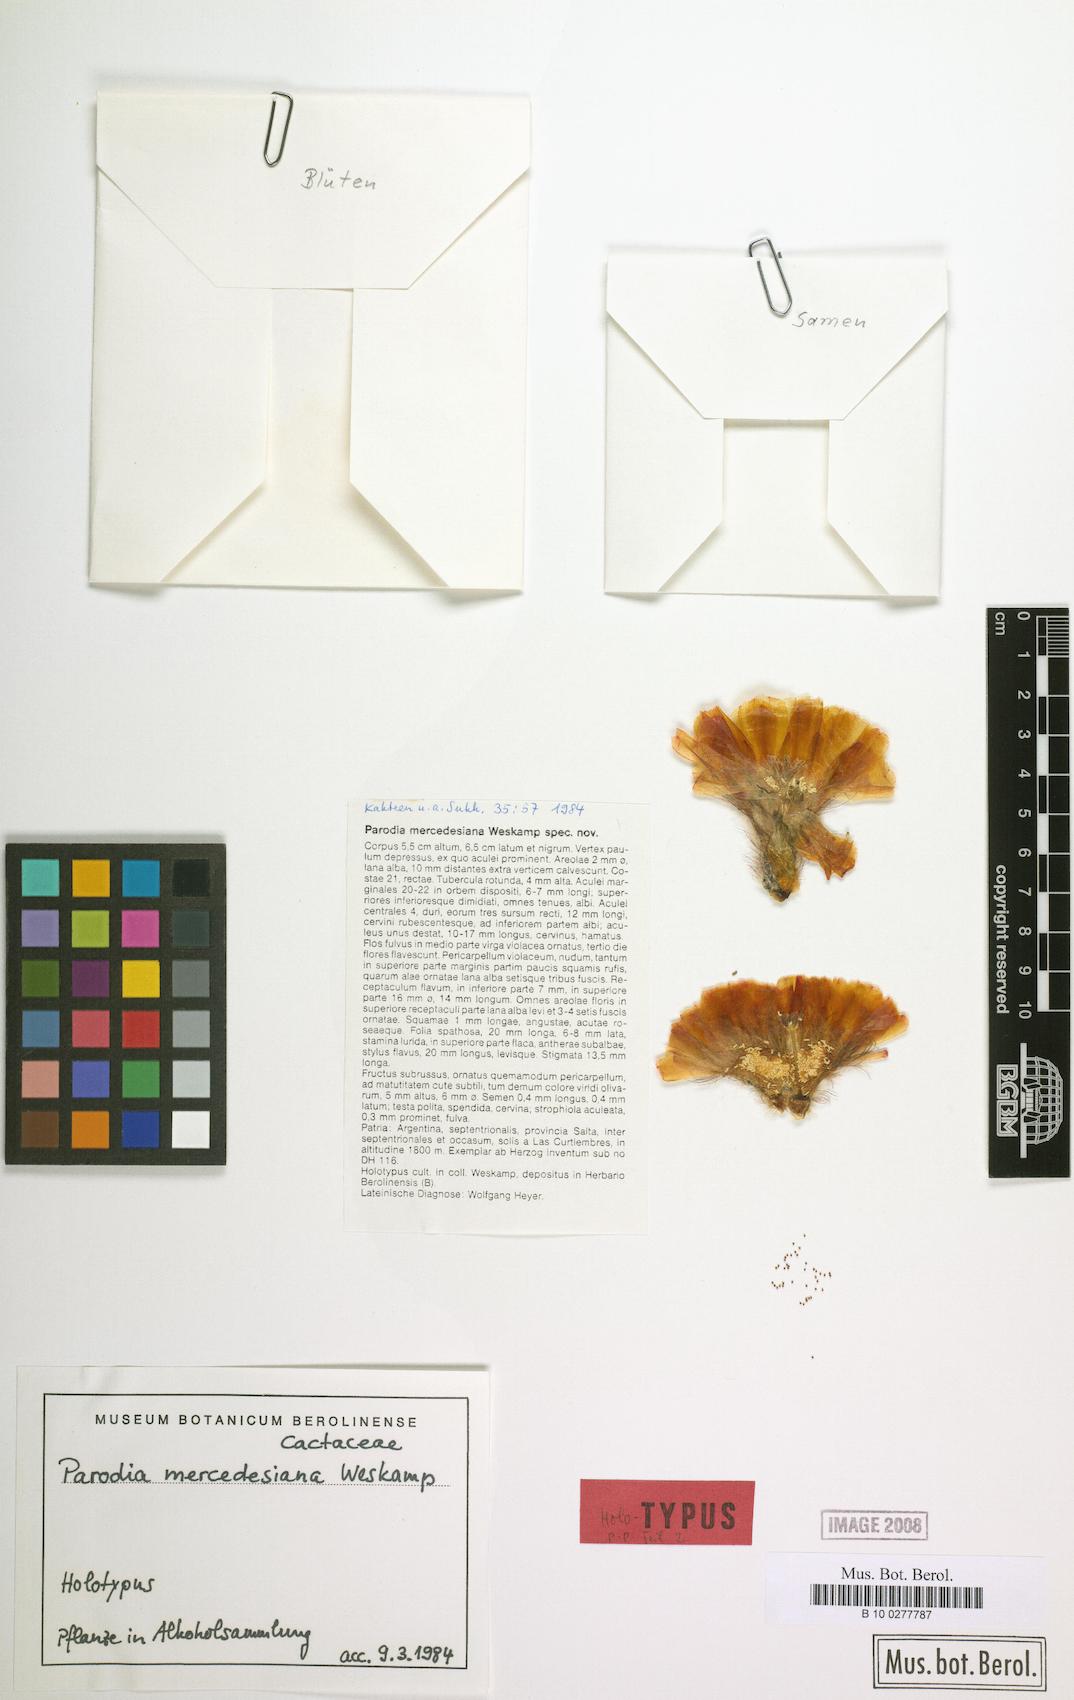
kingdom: Plantae
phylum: Tracheophyta
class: Magnoliopsida
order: Caryophyllales
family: Cactaceae
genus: Parodia
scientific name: Parodia microsperma
